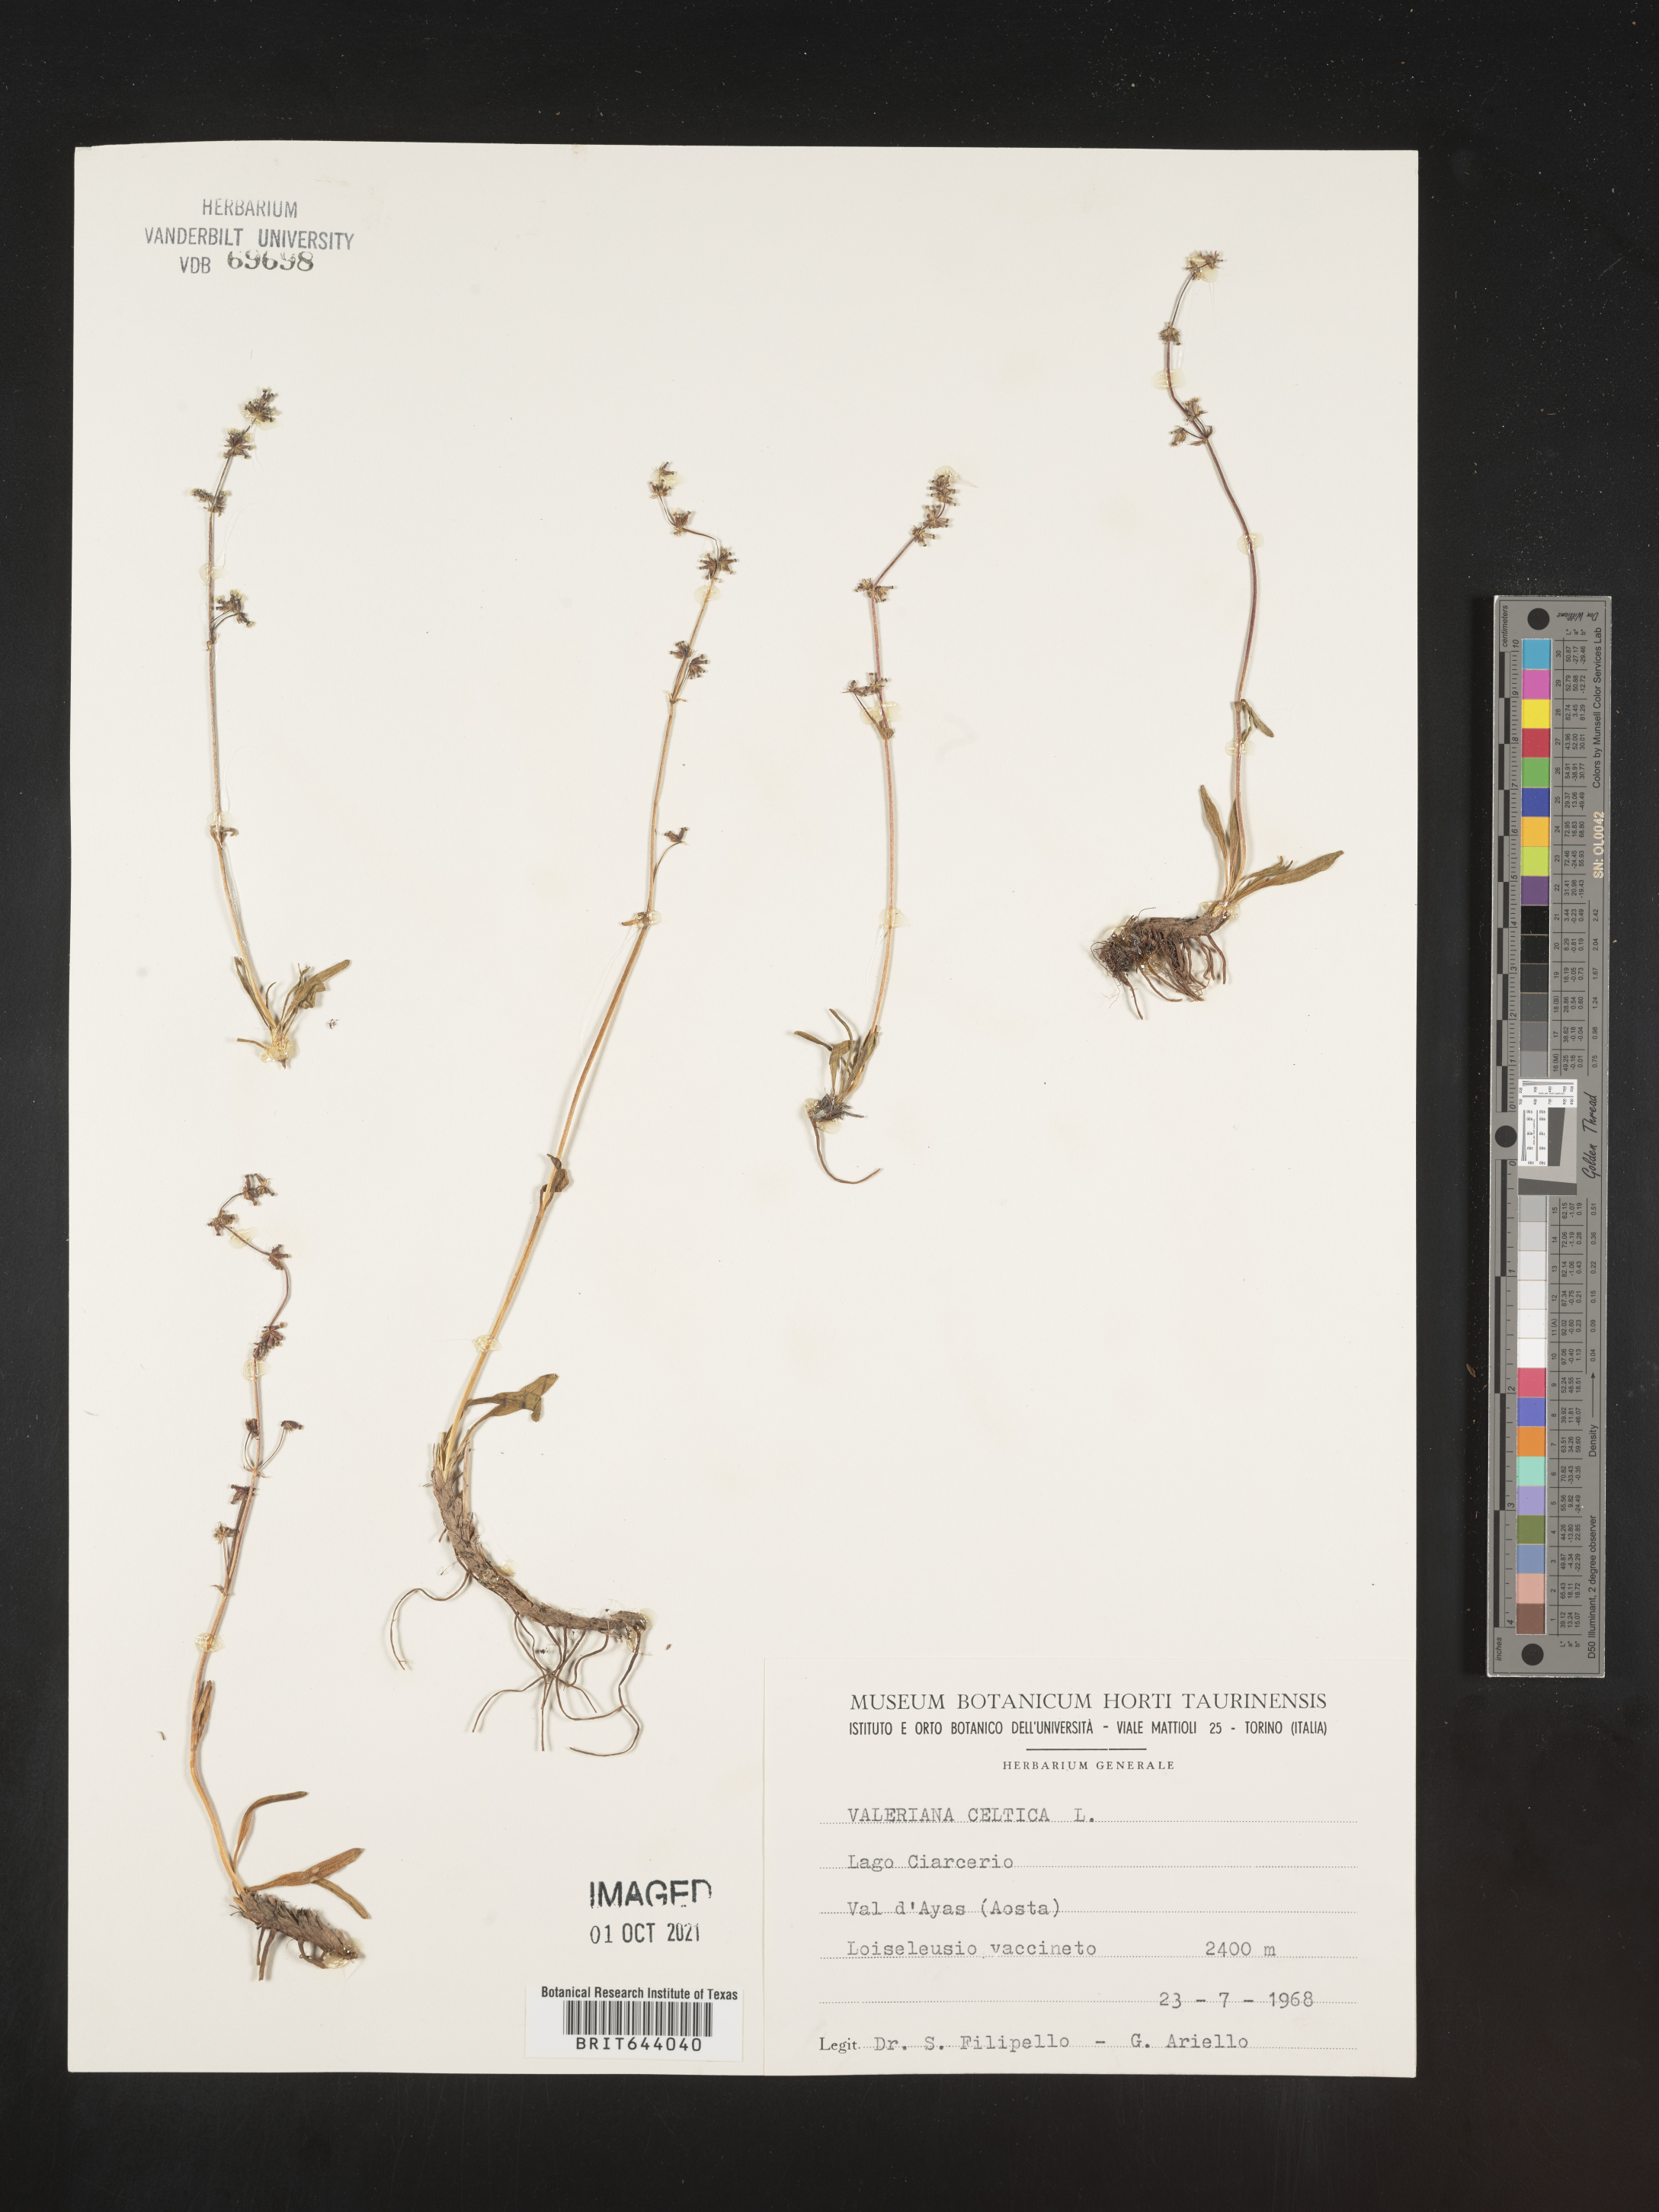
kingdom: Plantae
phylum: Tracheophyta
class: Magnoliopsida
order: Dipsacales
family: Caprifoliaceae
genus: Valeriana
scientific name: Valeriana celtica
